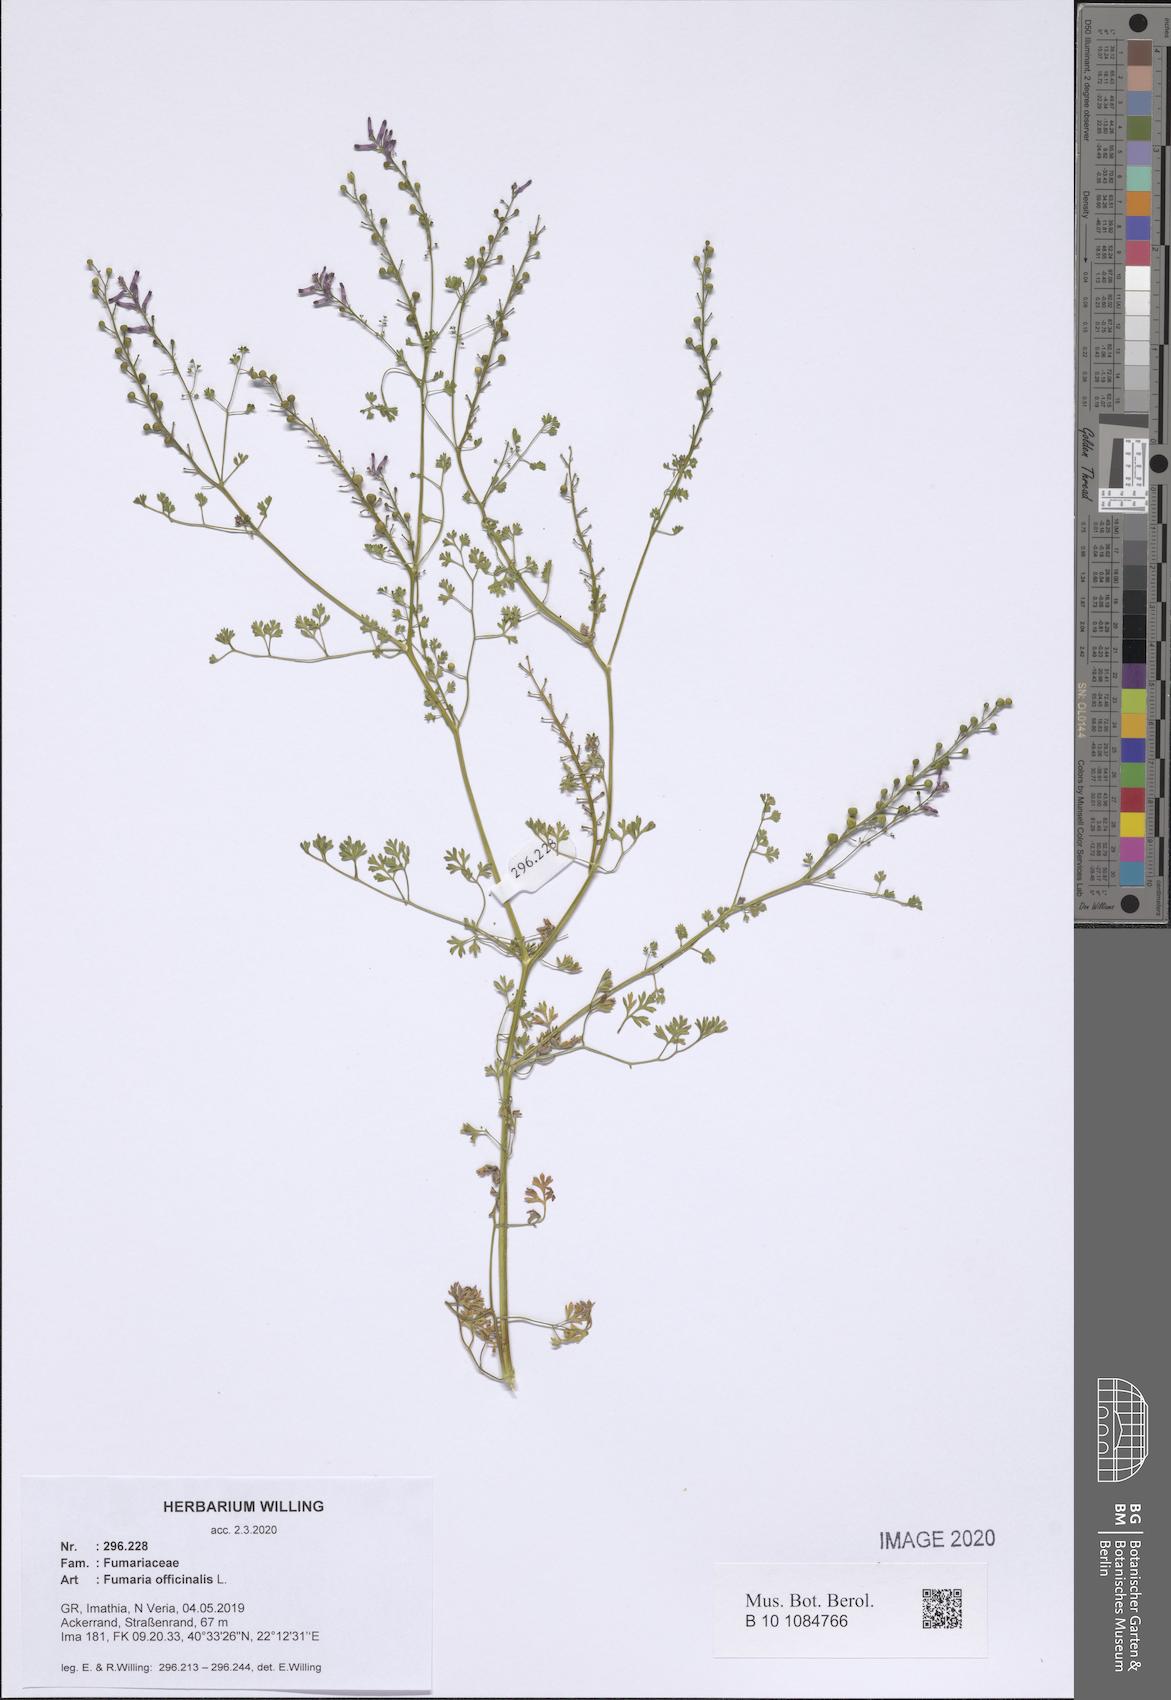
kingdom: Plantae
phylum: Tracheophyta
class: Magnoliopsida
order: Ranunculales
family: Papaveraceae
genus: Fumaria
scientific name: Fumaria officinalis
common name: Common fumitory
